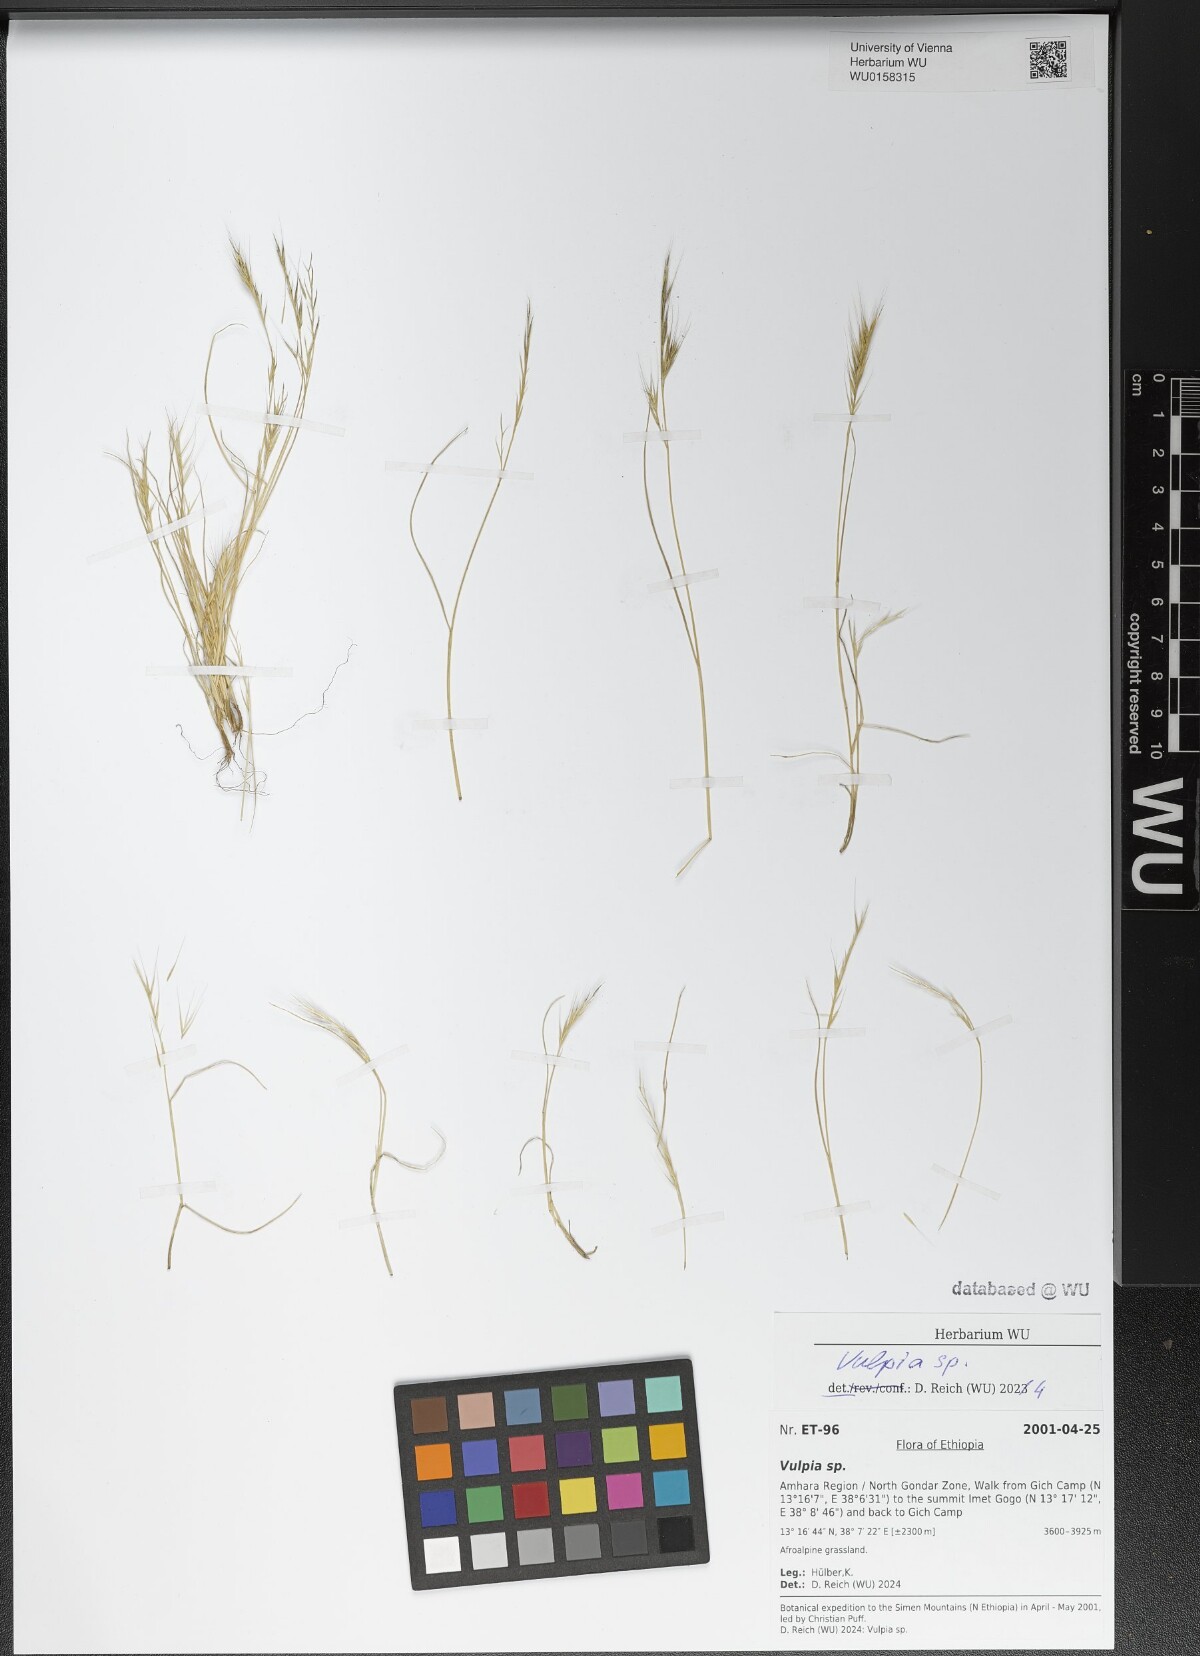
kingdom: Plantae
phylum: Tracheophyta
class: Liliopsida
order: Poales
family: Poaceae
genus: Festuca
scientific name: Festuca
